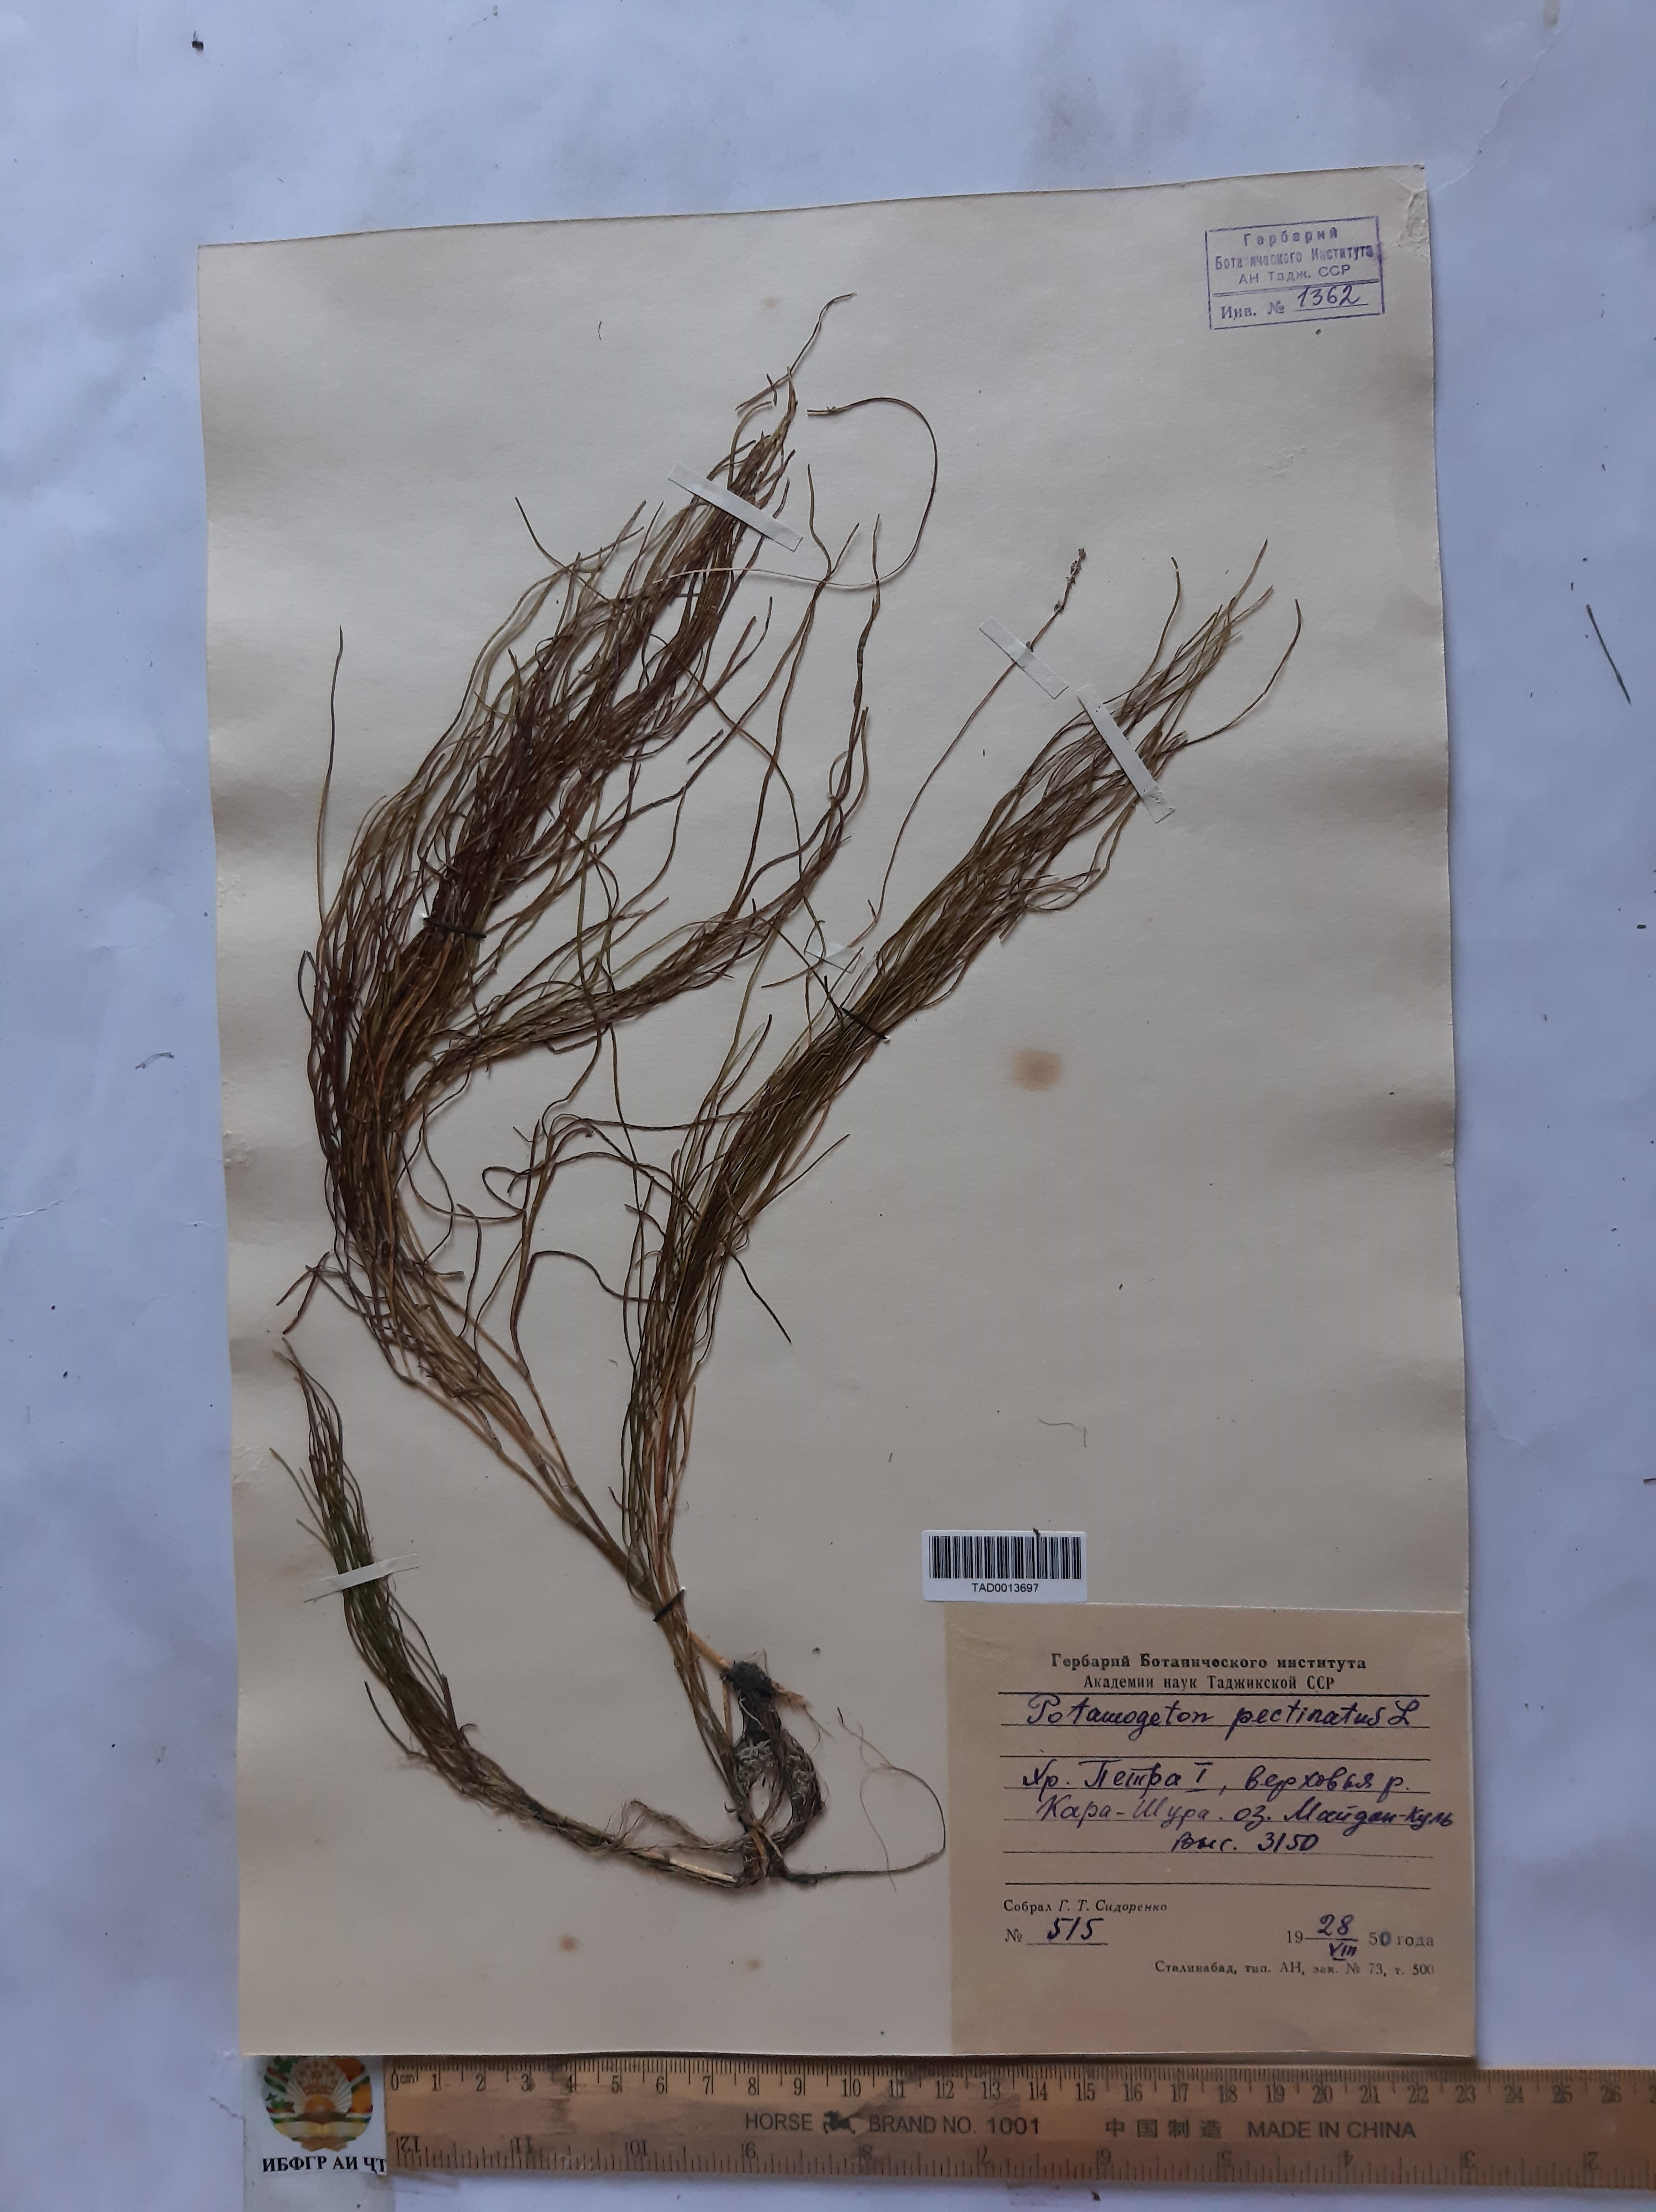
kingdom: Plantae
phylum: Tracheophyta
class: Liliopsida
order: Alismatales
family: Potamogetonaceae
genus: Stuckenia
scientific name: Stuckenia pectinata
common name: Sago pondweed
